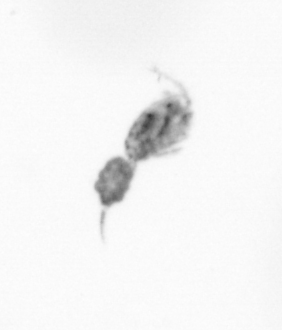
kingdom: Animalia
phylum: Arthropoda
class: Copepoda
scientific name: Copepoda
